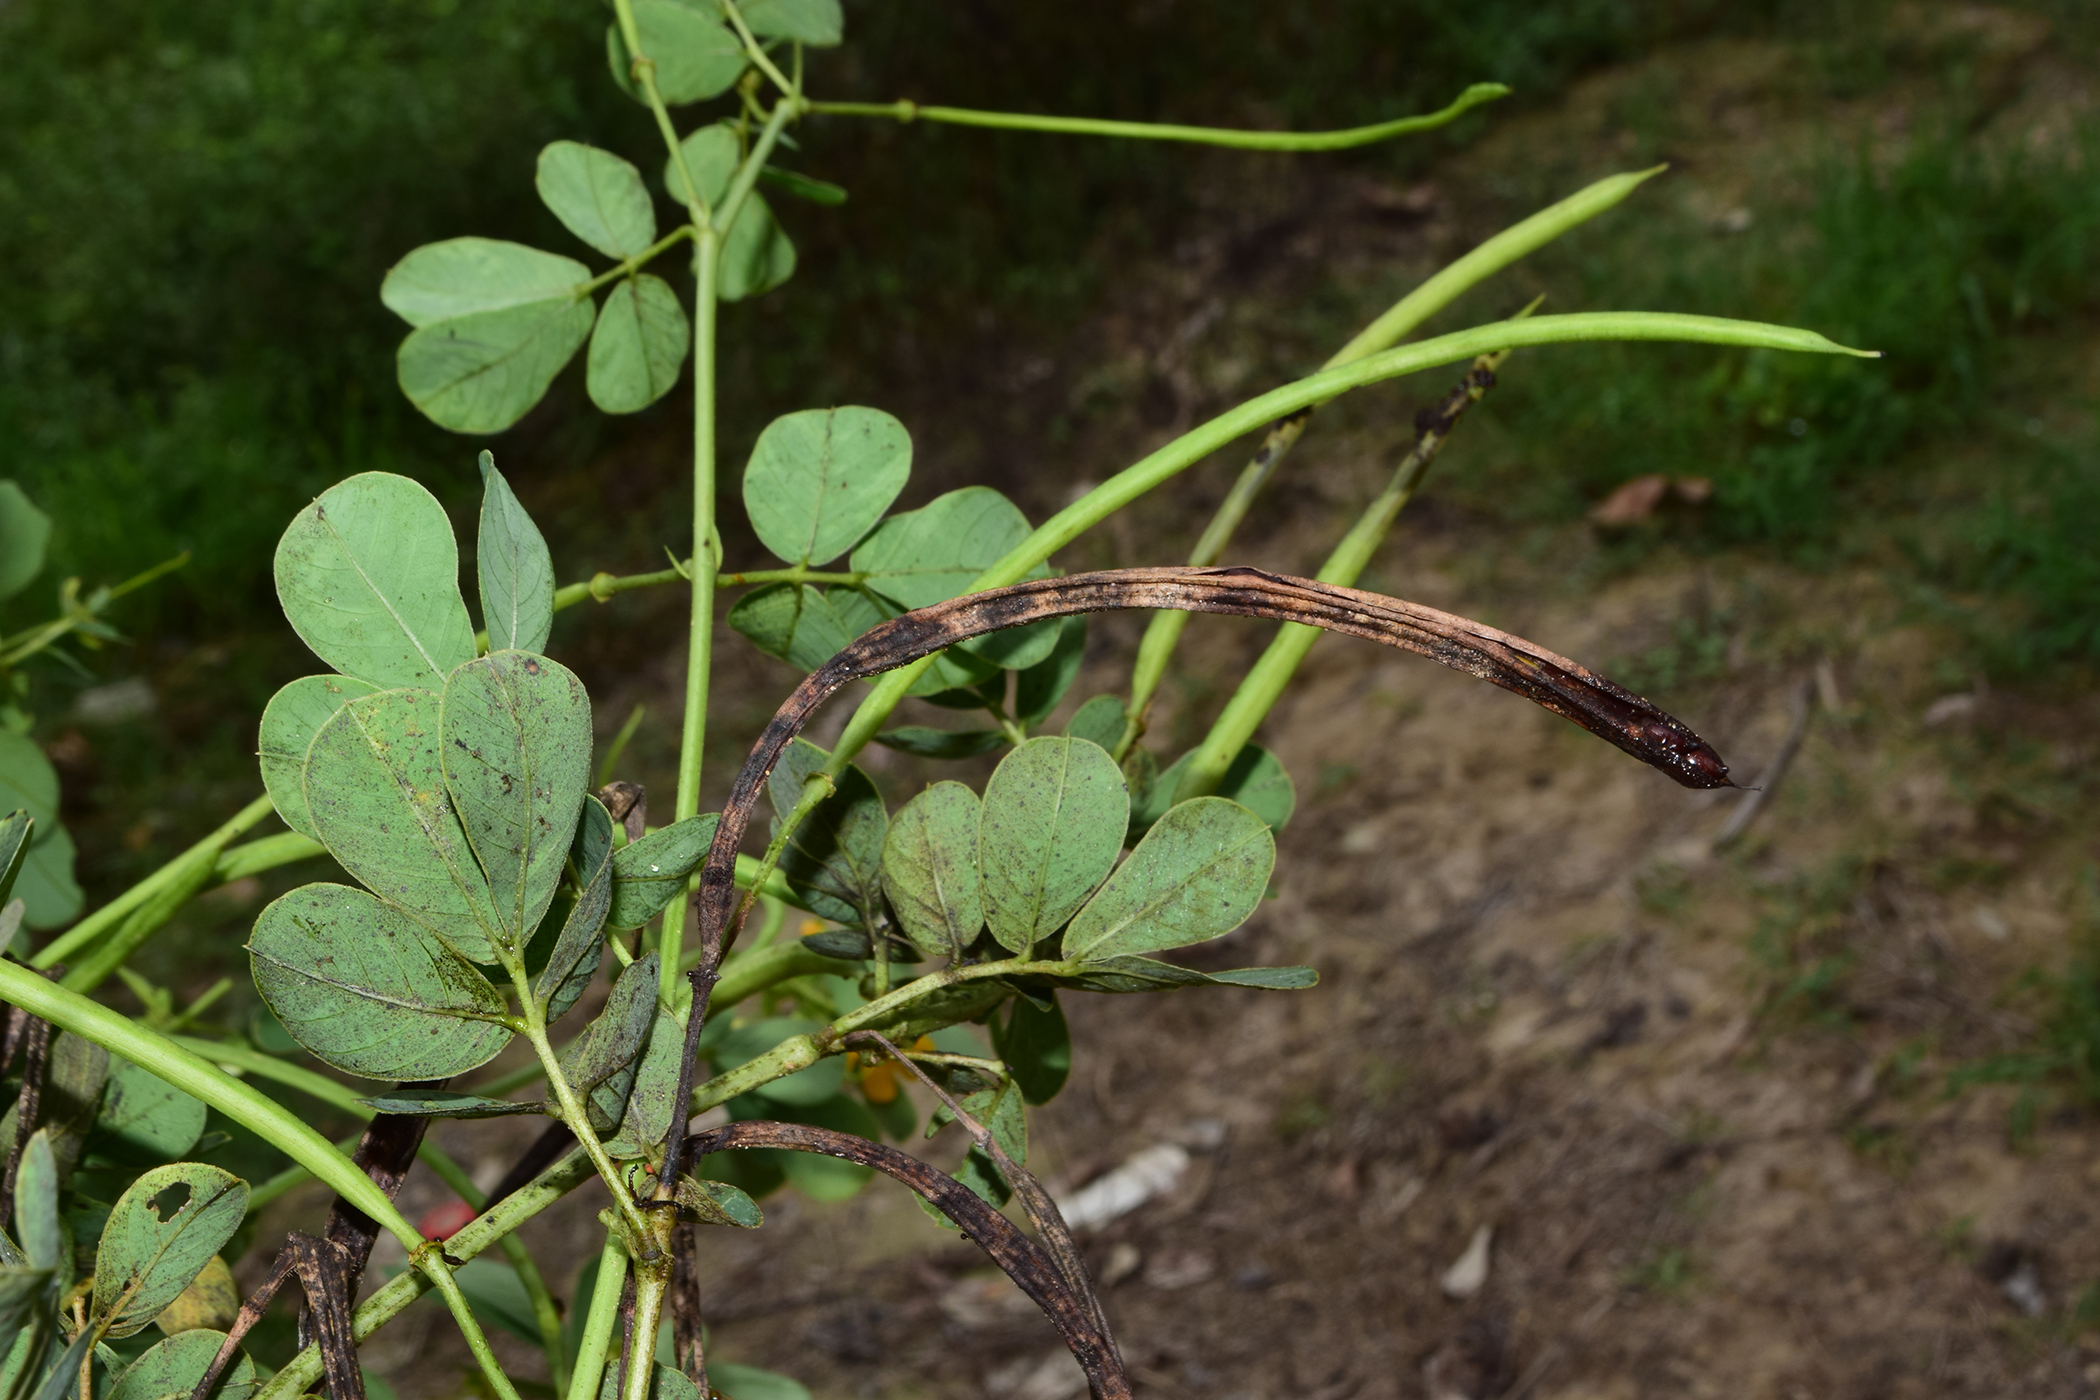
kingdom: Plantae
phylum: Tracheophyta
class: Magnoliopsida
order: Fabales
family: Fabaceae
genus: Senna
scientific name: Senna obtusifolia
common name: Java-bean
